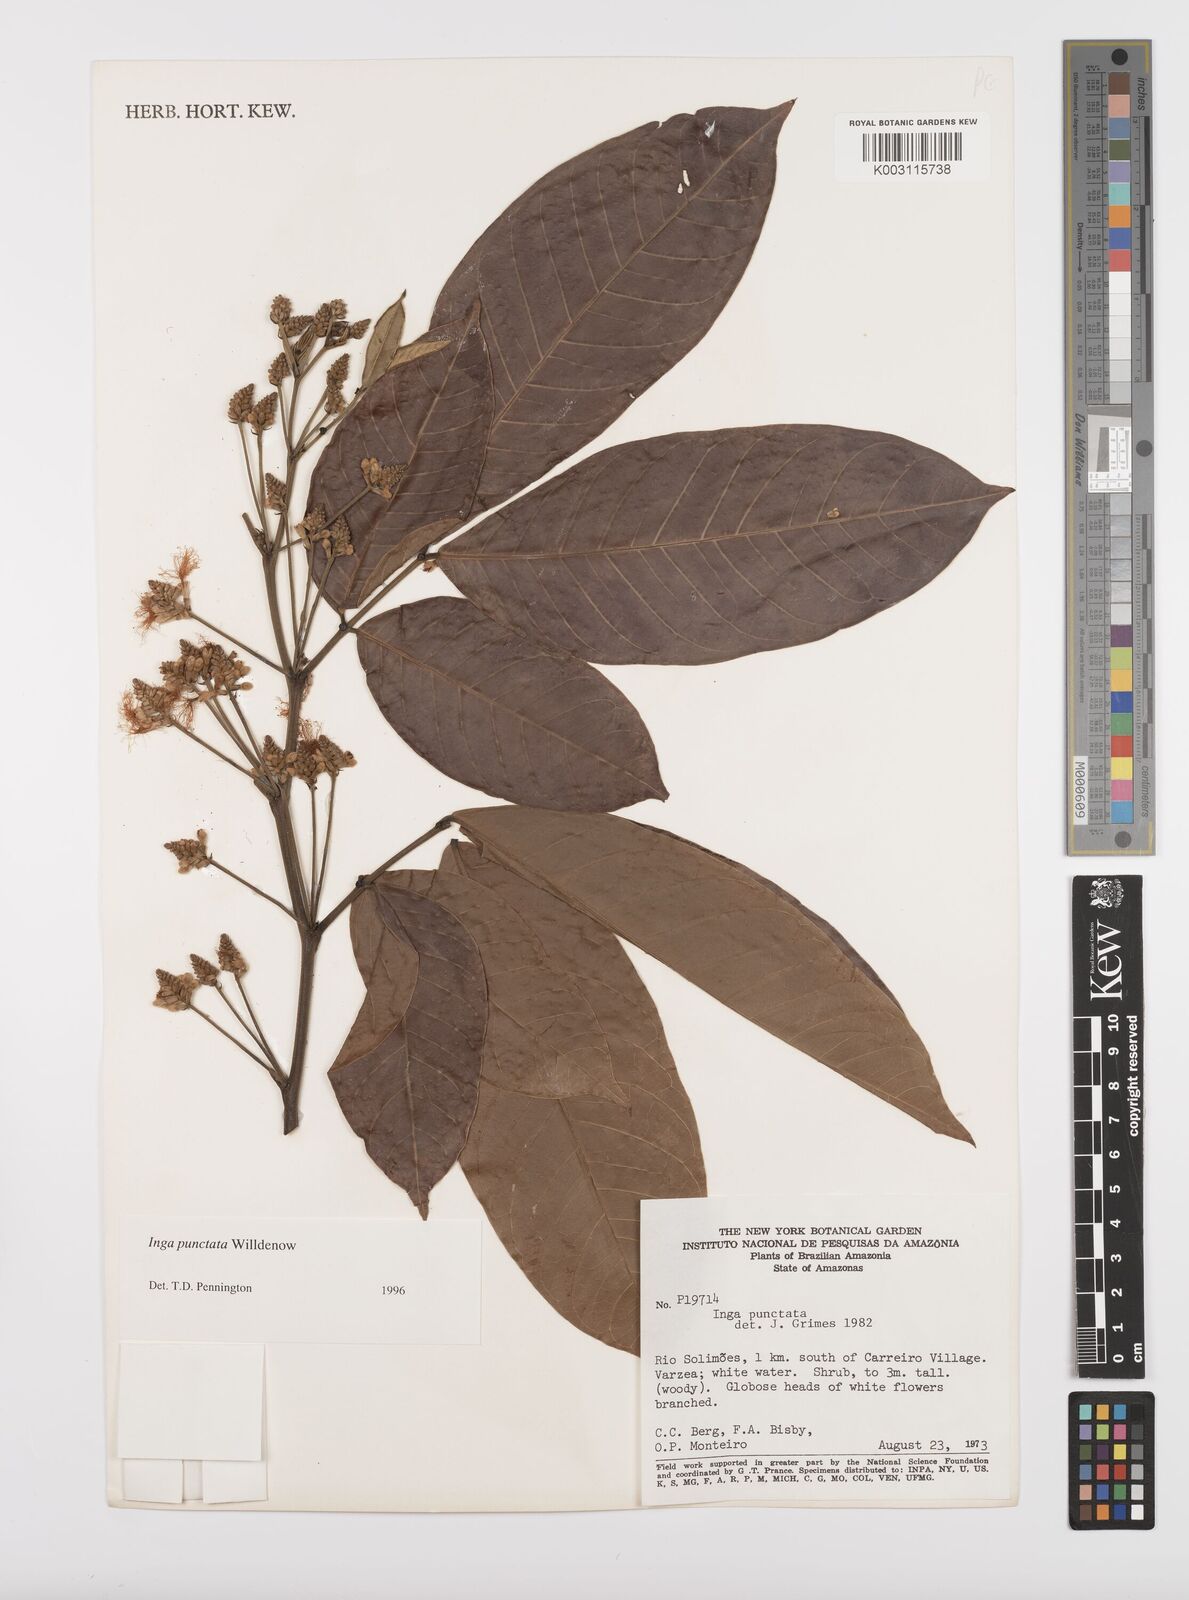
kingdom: Plantae
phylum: Tracheophyta
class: Magnoliopsida
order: Fabales
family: Fabaceae
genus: Inga
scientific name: Inga punctata
